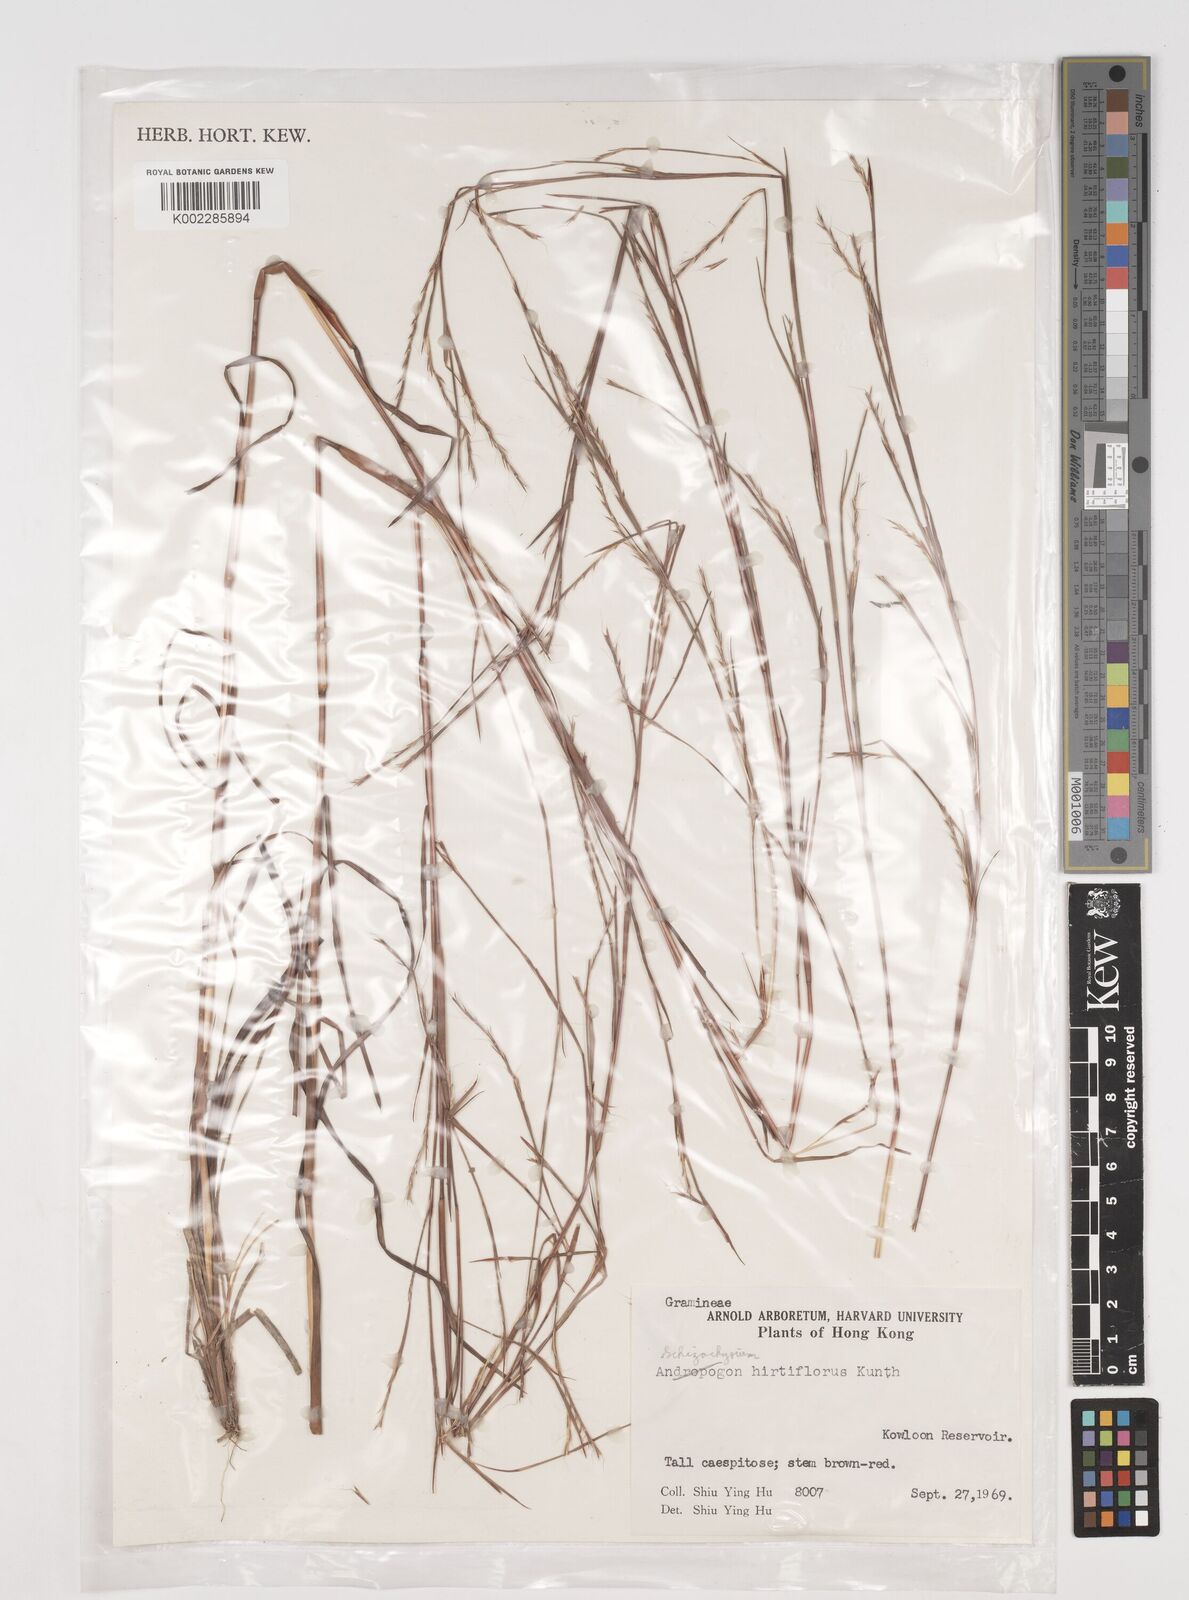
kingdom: Plantae
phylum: Tracheophyta
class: Liliopsida
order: Poales
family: Poaceae
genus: Schizachyrium
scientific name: Schizachyrium sanguineum
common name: Crimson bluestem
